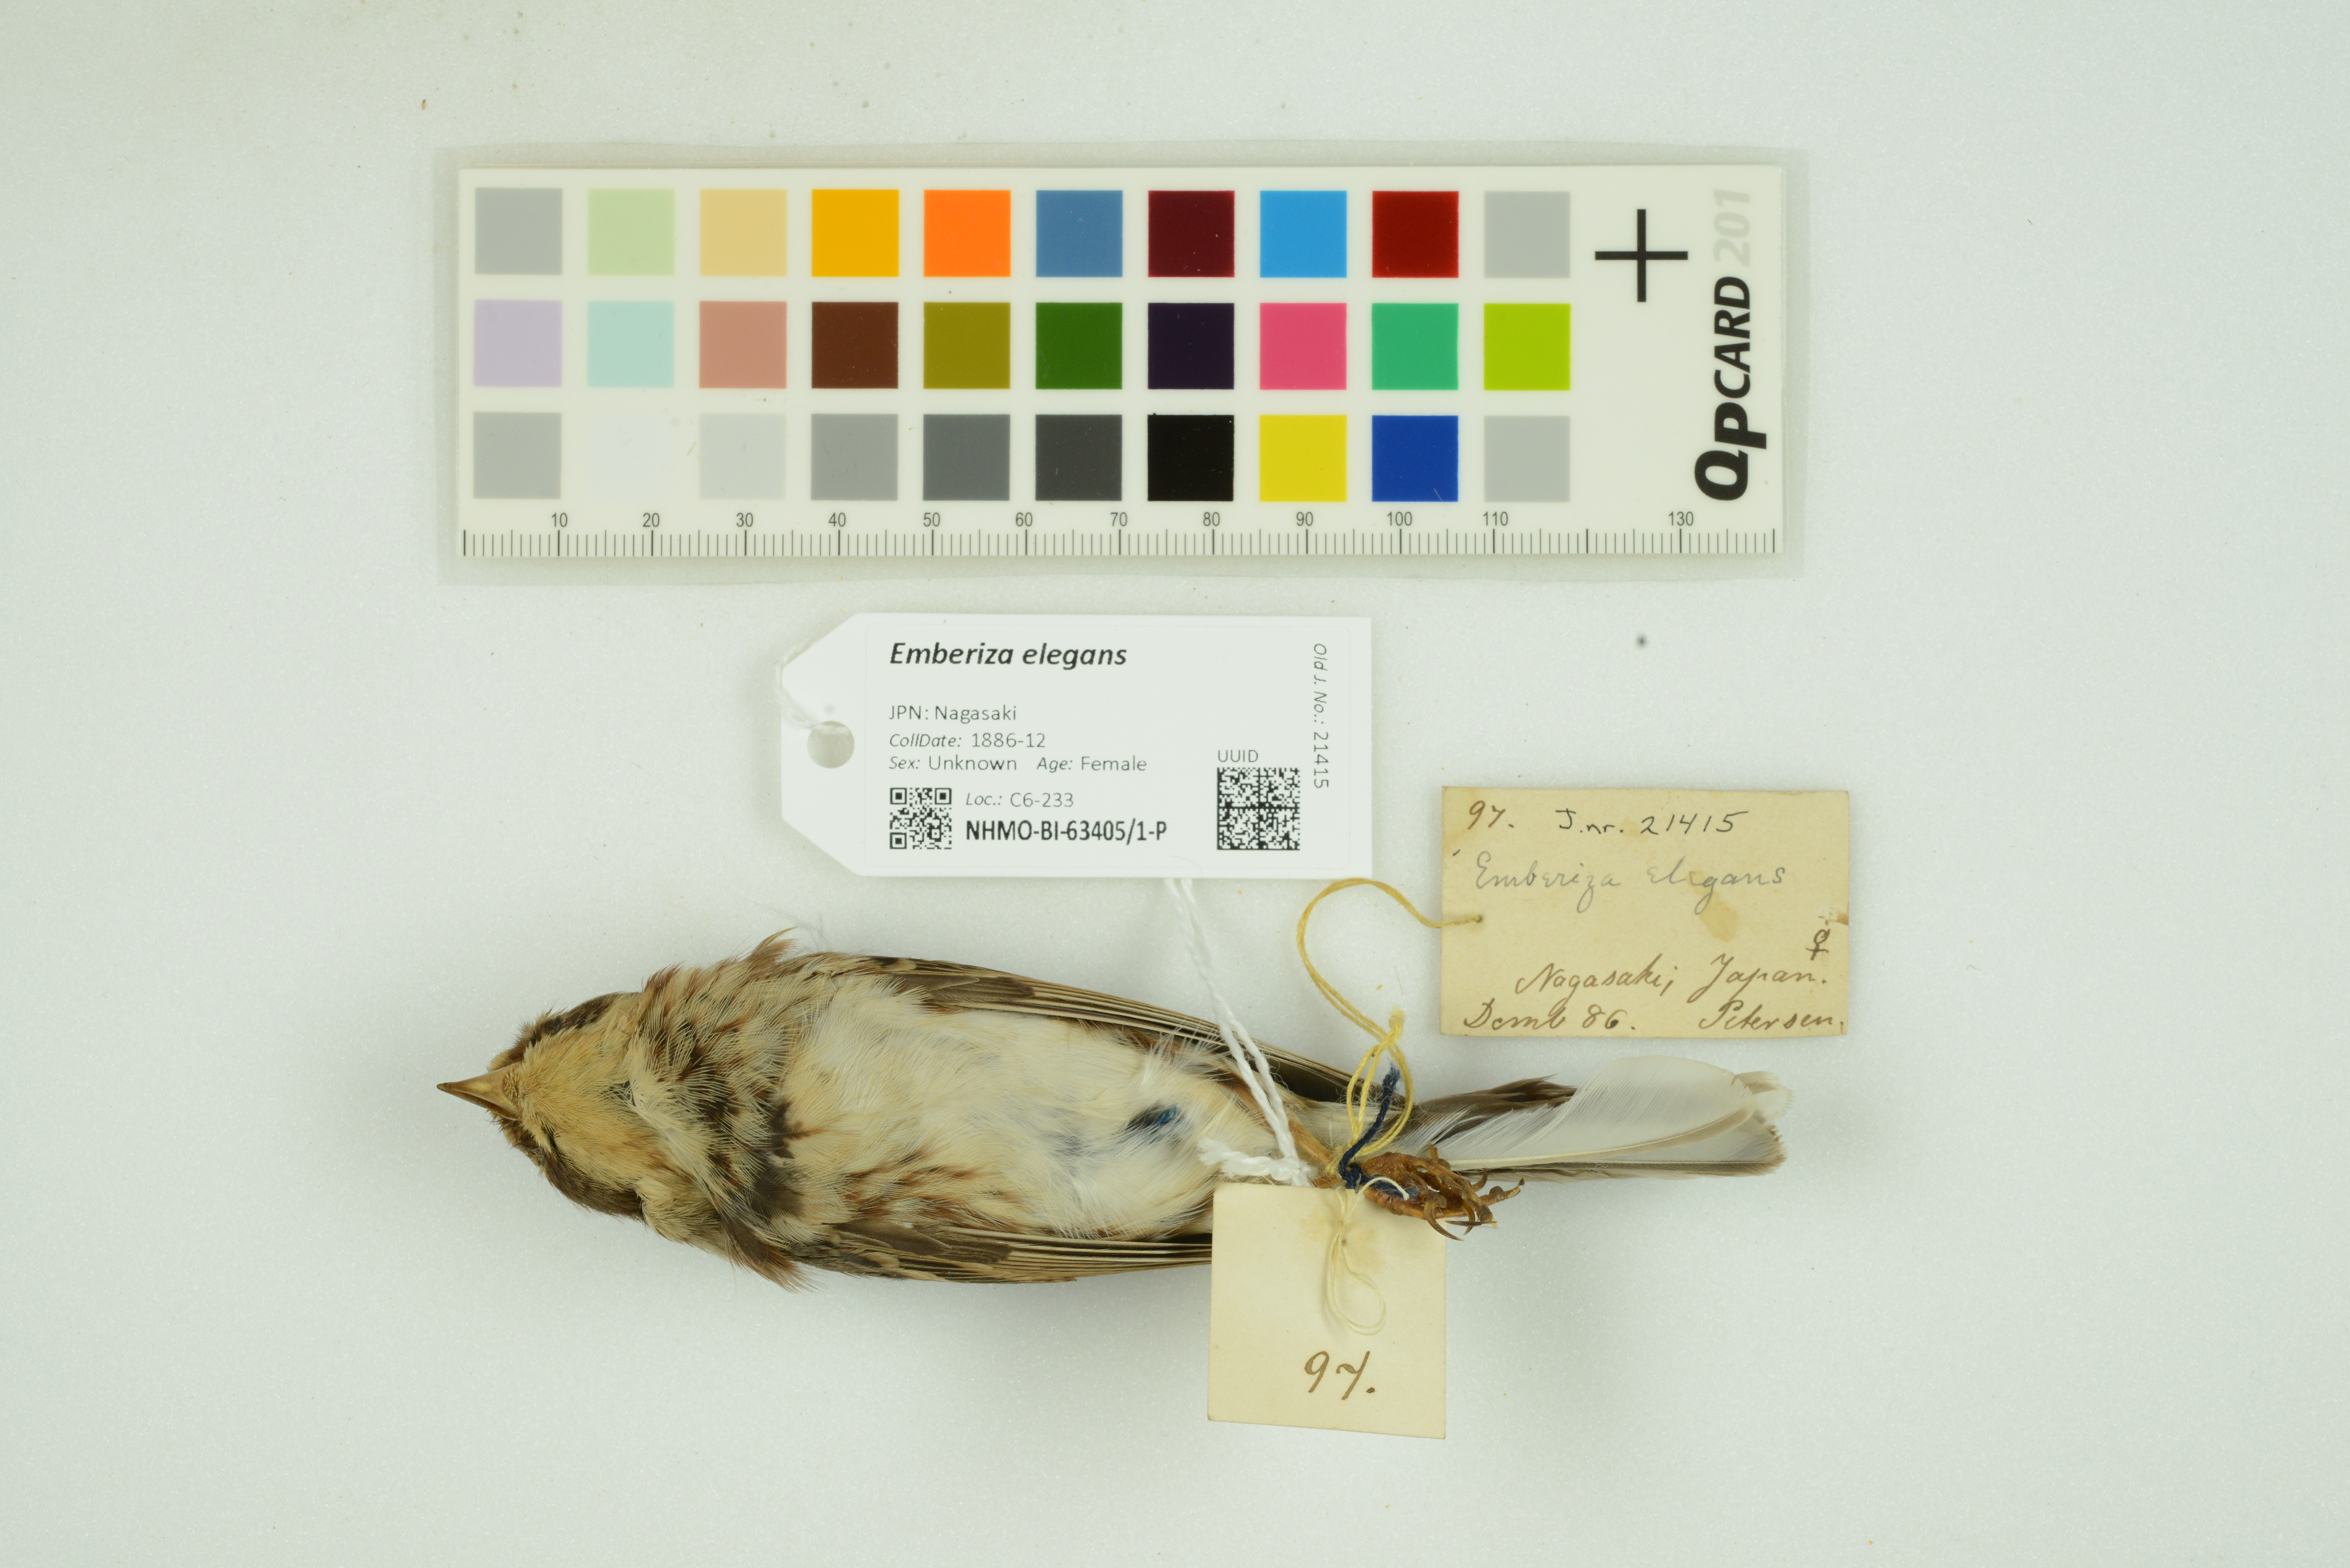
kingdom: Animalia
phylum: Chordata
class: Aves
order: Passeriformes
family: Emberizidae
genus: Emberiza
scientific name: Emberiza elegans
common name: Yellow-throated bunting
